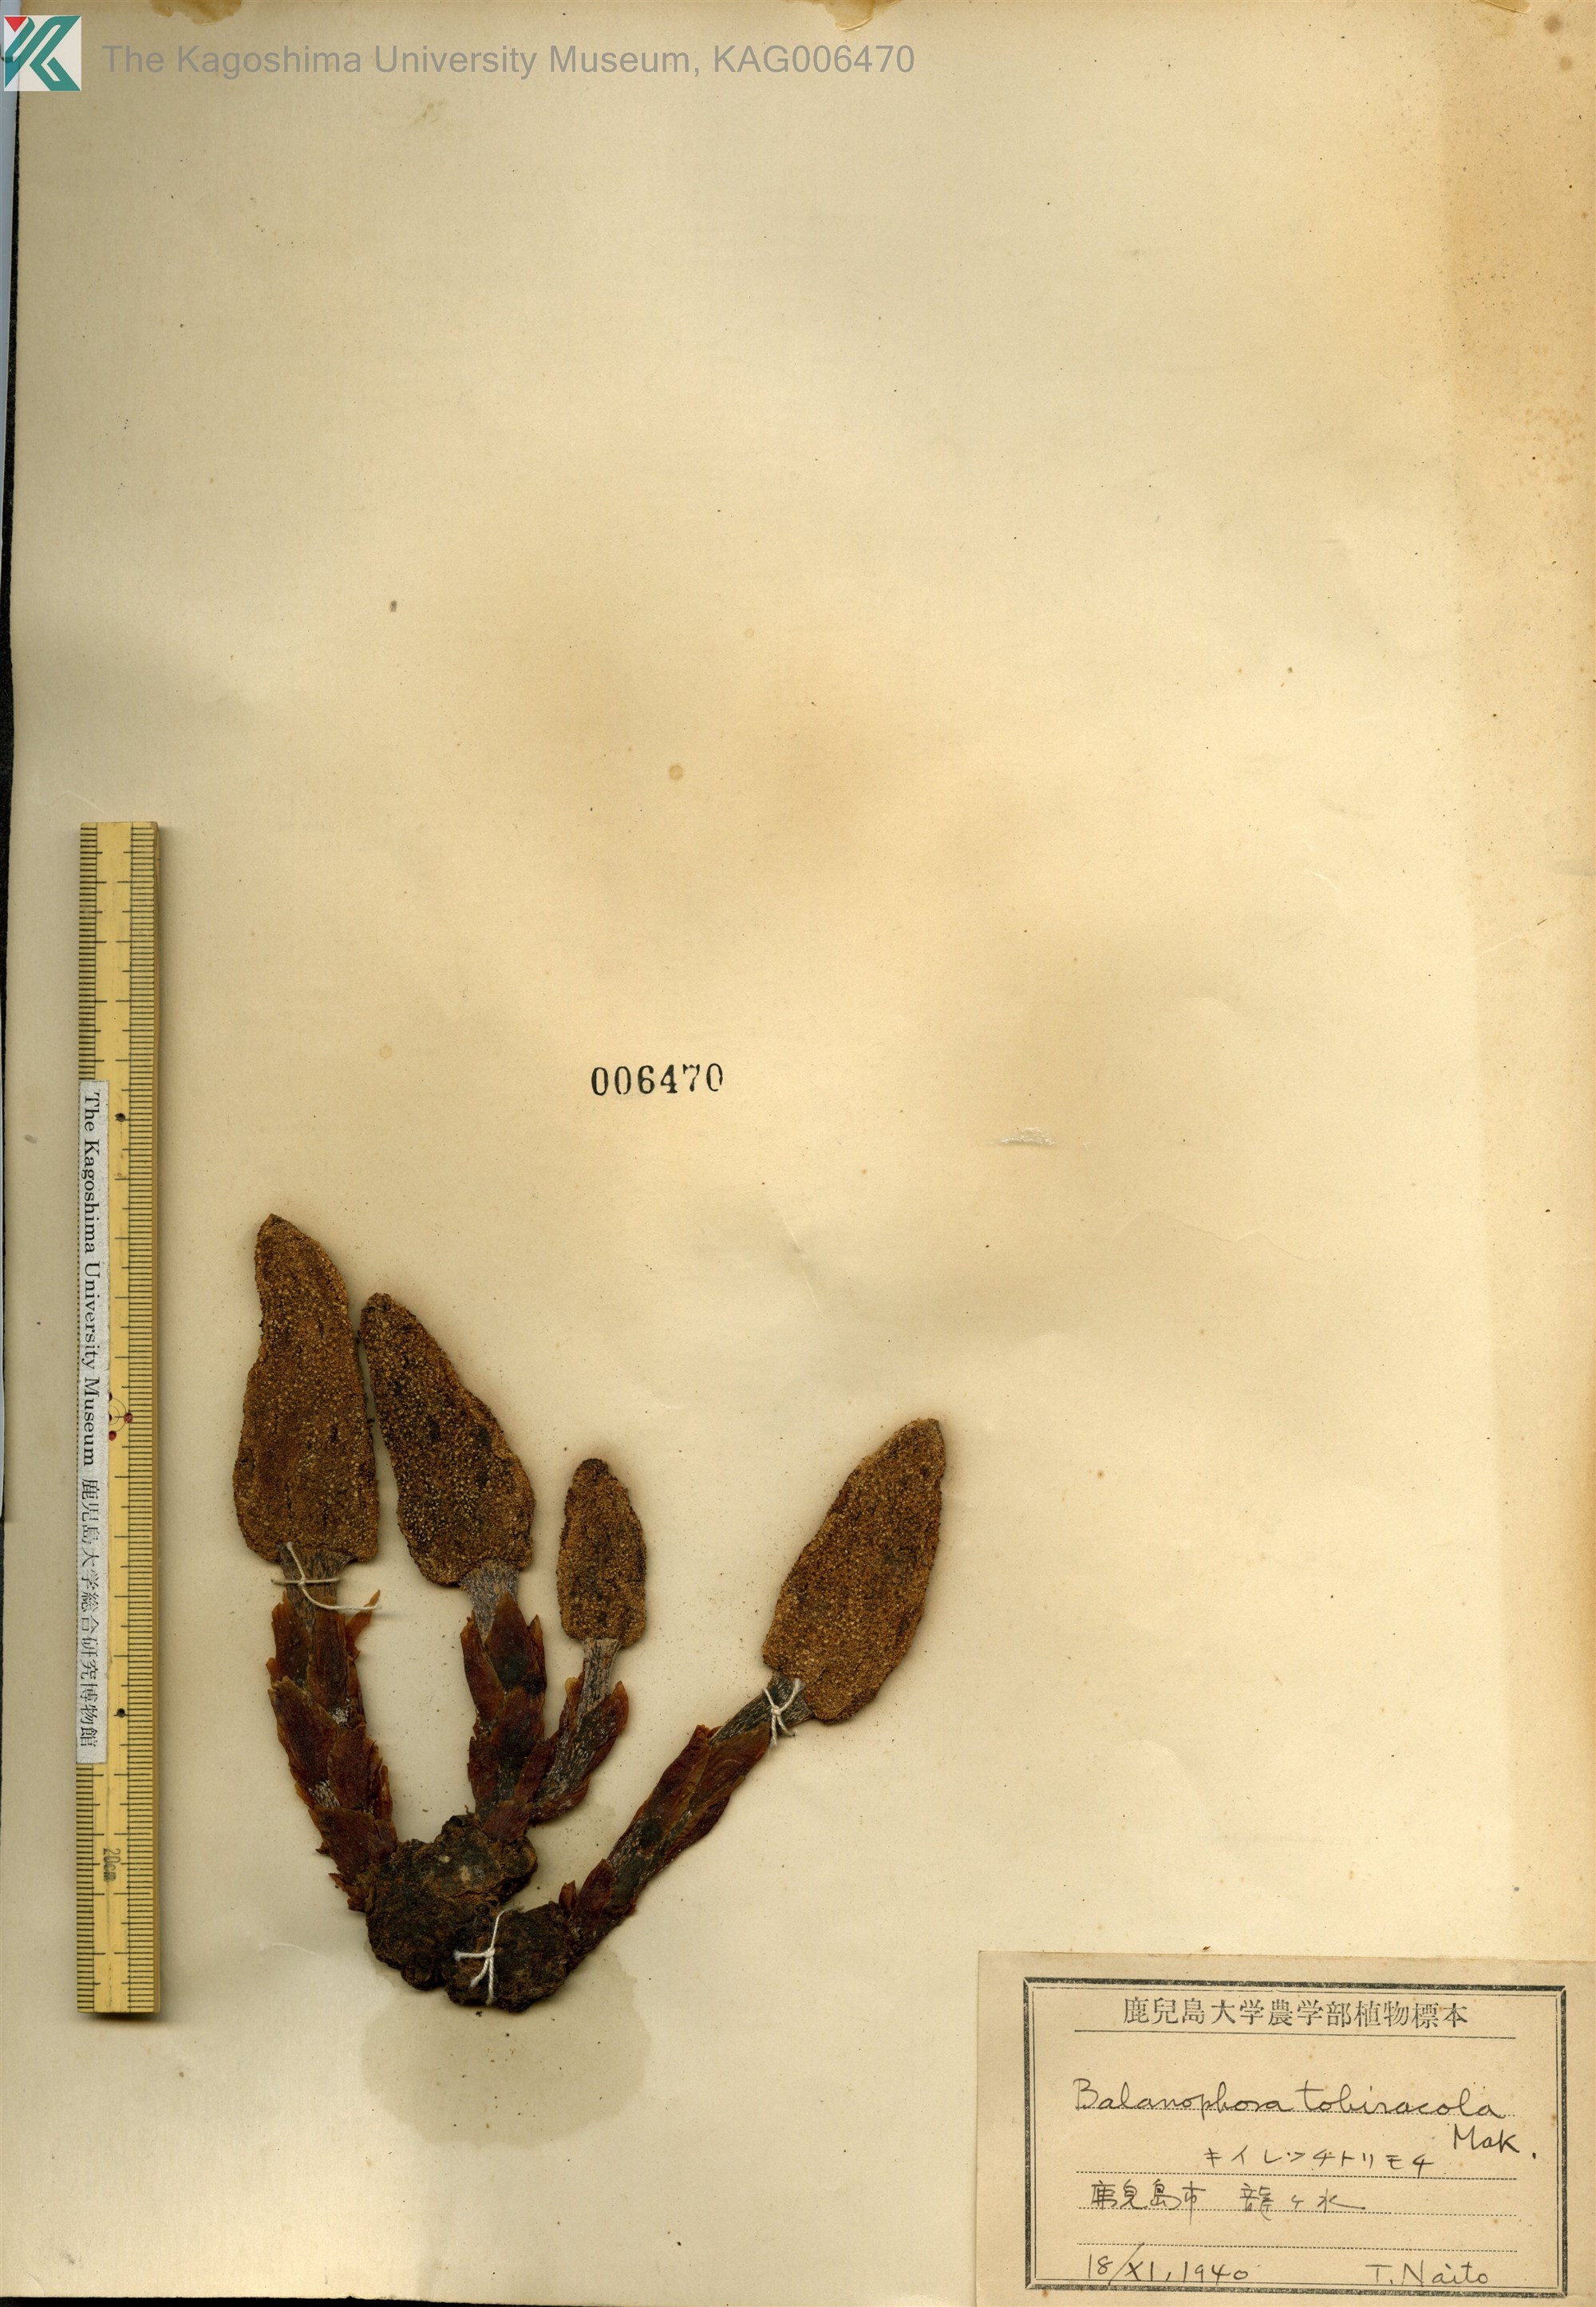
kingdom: Plantae
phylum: Tracheophyta
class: Magnoliopsida
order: Santalales
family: Balanophoraceae
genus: Balanophora
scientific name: Balanophora tobiracola
